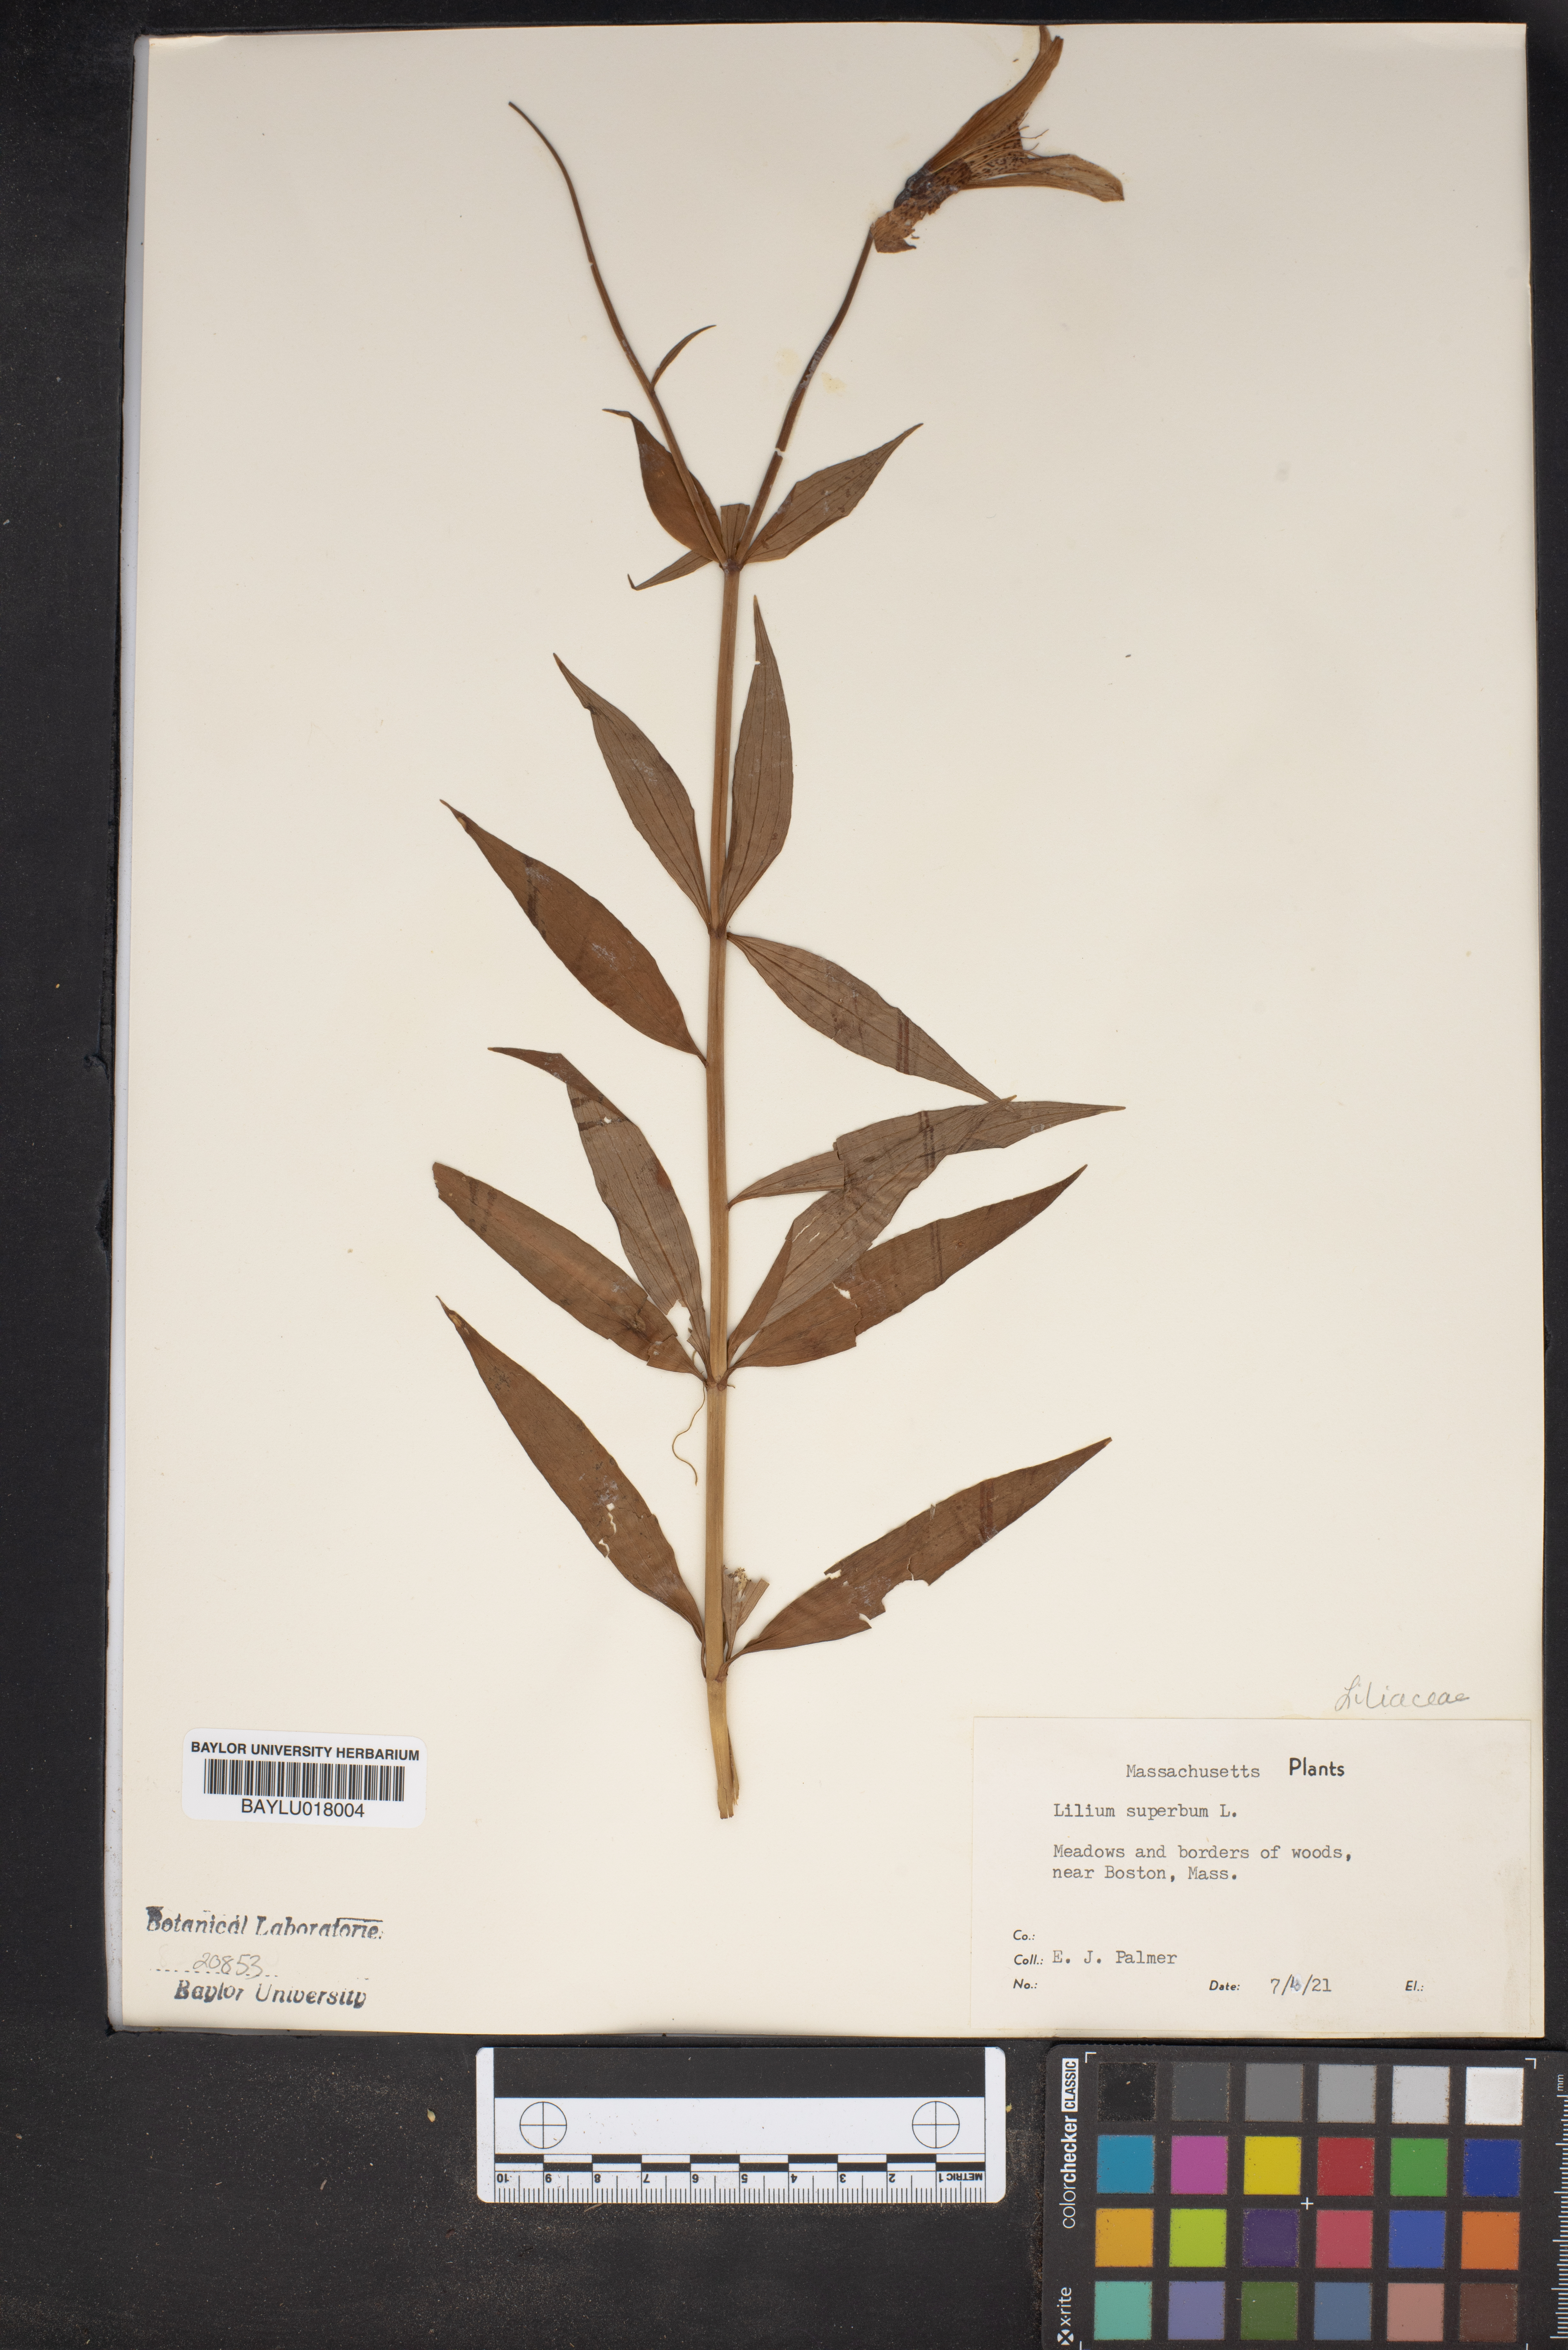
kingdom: Plantae
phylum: Tracheophyta
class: Liliopsida
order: Liliales
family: Liliaceae
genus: Lilium
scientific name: Lilium superbum
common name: American turk's-cap lily
